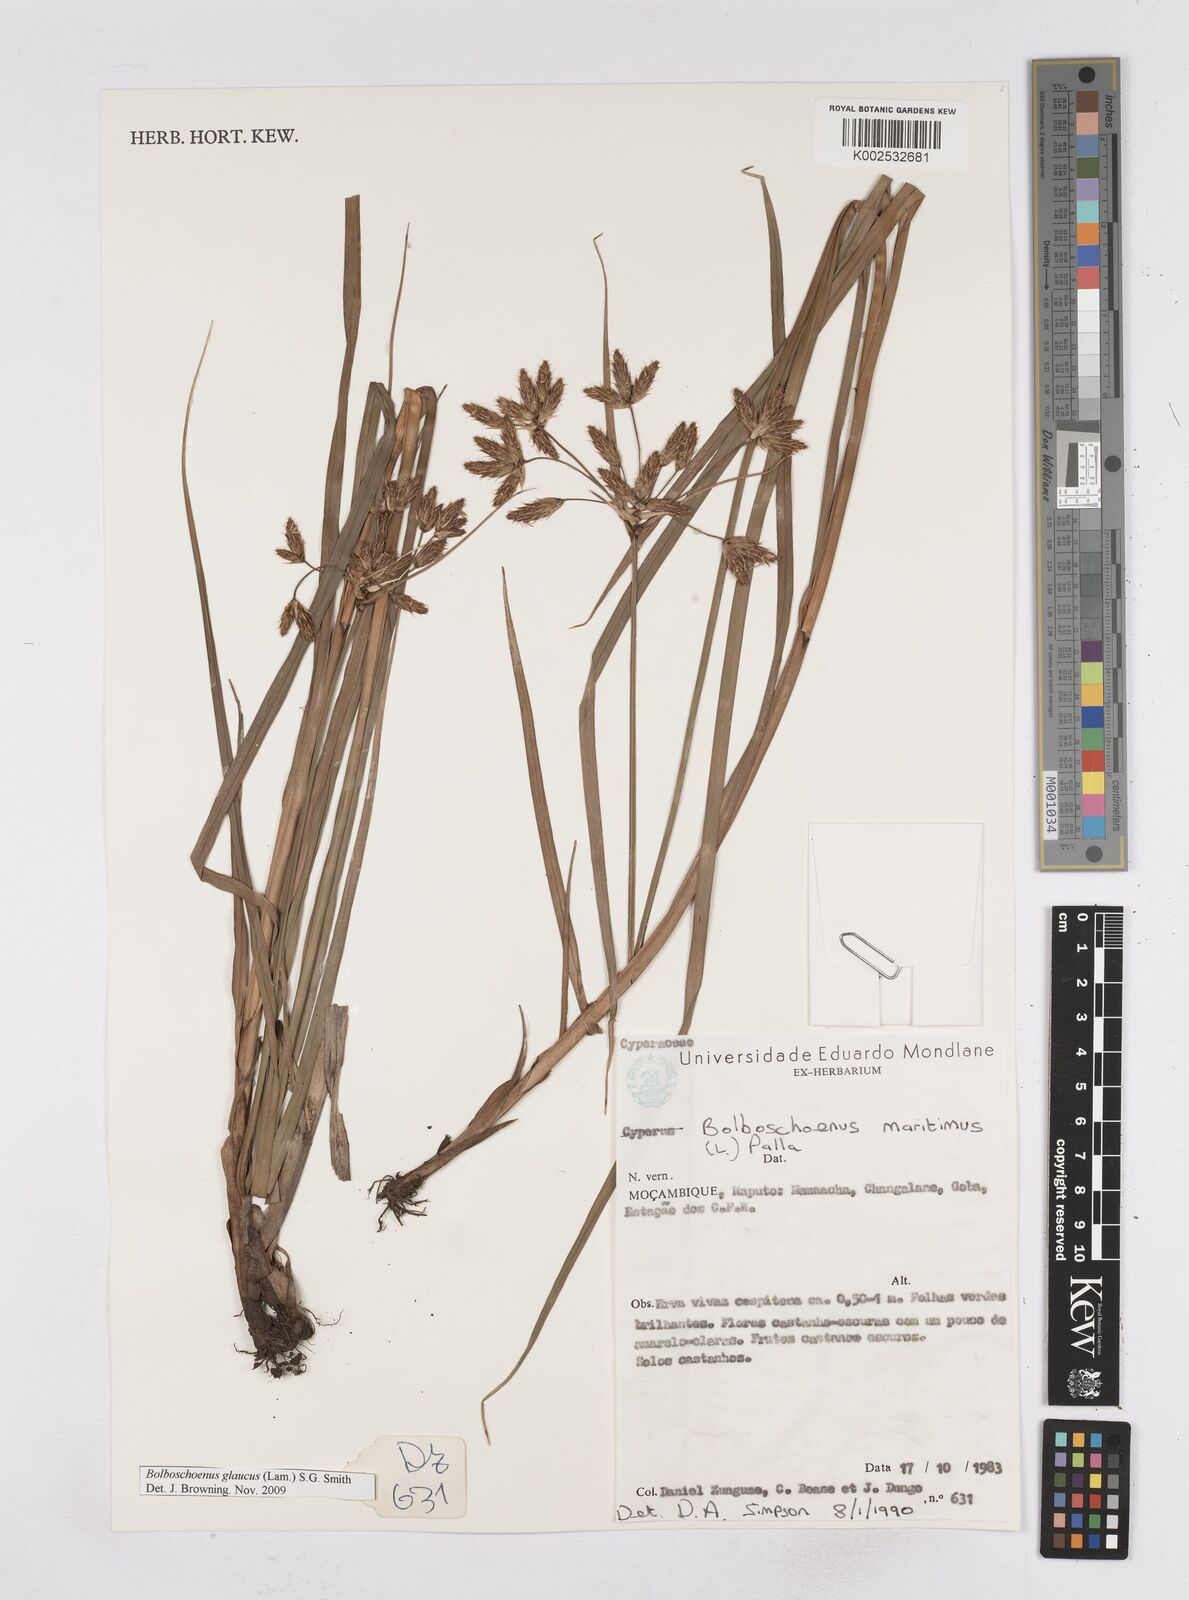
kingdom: Plantae
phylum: Tracheophyta
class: Liliopsida
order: Poales
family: Cyperaceae
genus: Bolboschoenus
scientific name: Bolboschoenus glaucus
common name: Tuberous bulrush
